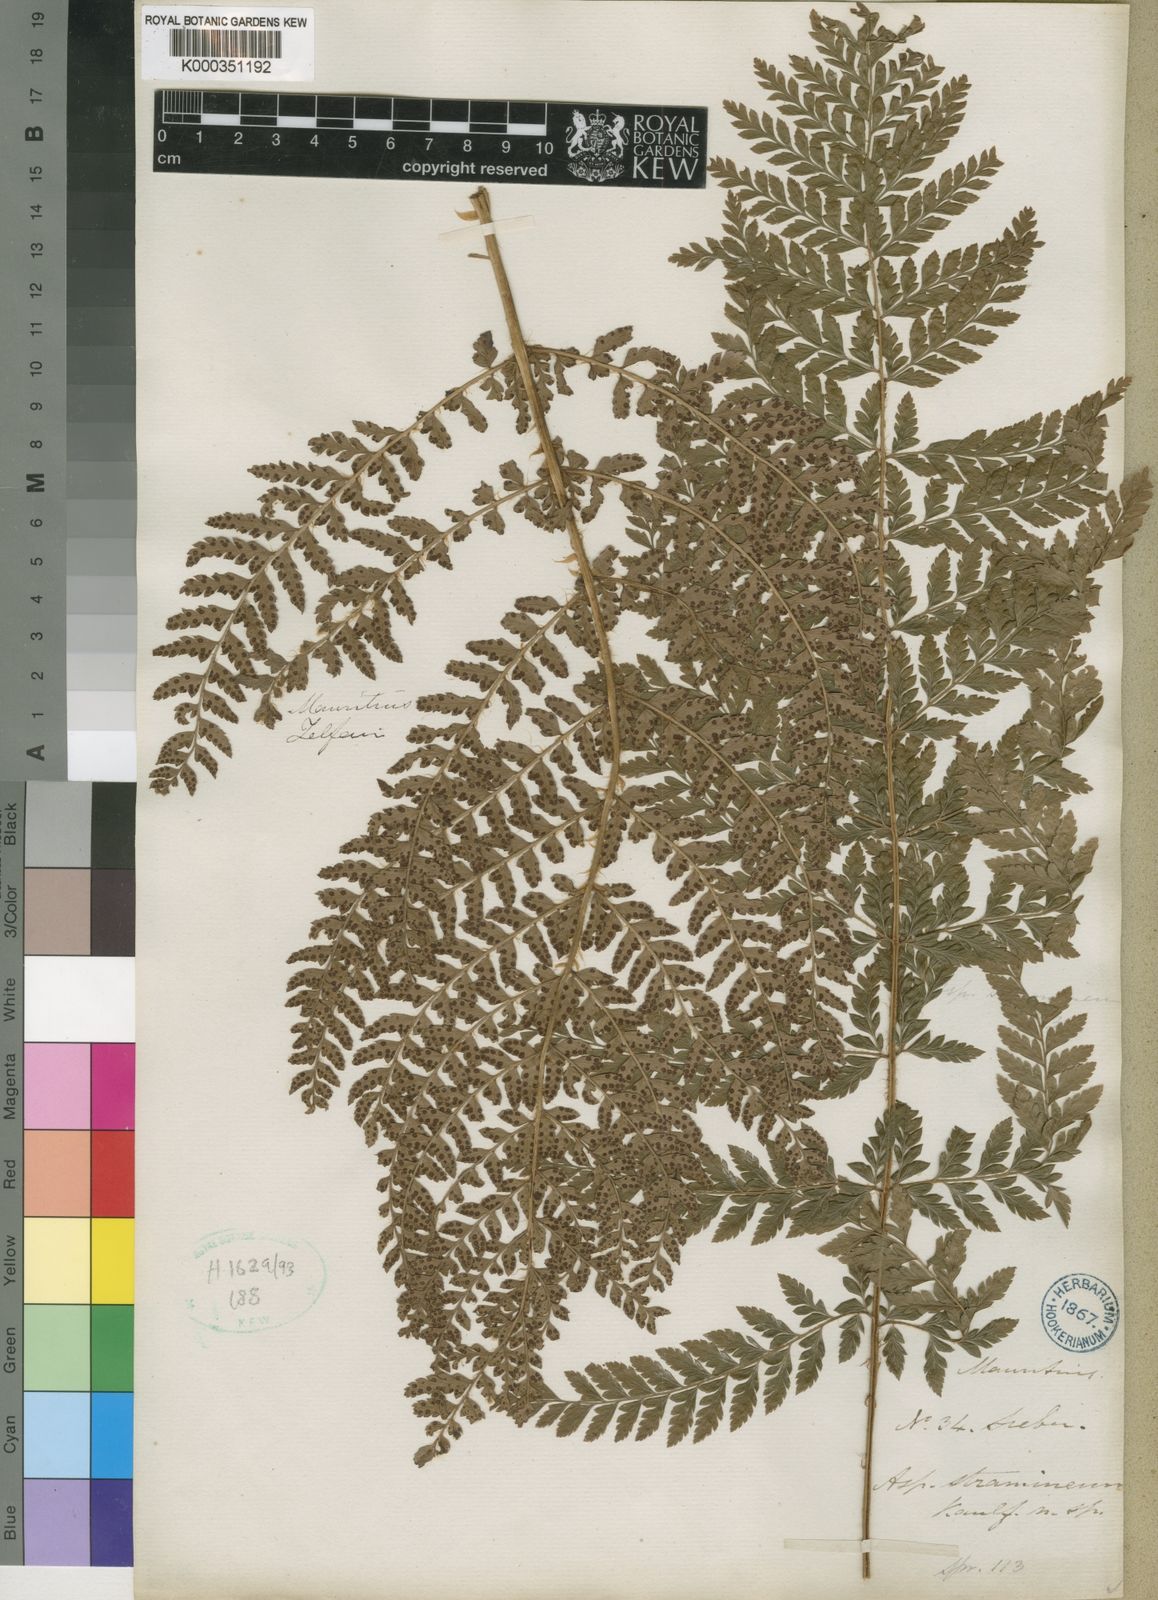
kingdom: Plantae
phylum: Tracheophyta
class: Polypodiopsida
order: Polypodiales
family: Dryopteridaceae
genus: Polystichum
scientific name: Polystichum ammifolium
